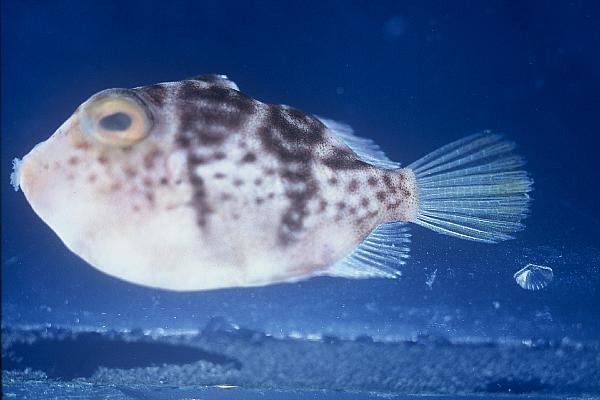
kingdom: Animalia
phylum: Chordata
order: Tetraodontiformes
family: Tetraodontidae
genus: Canthigaster
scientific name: Canthigaster valentini
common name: Banded toby
